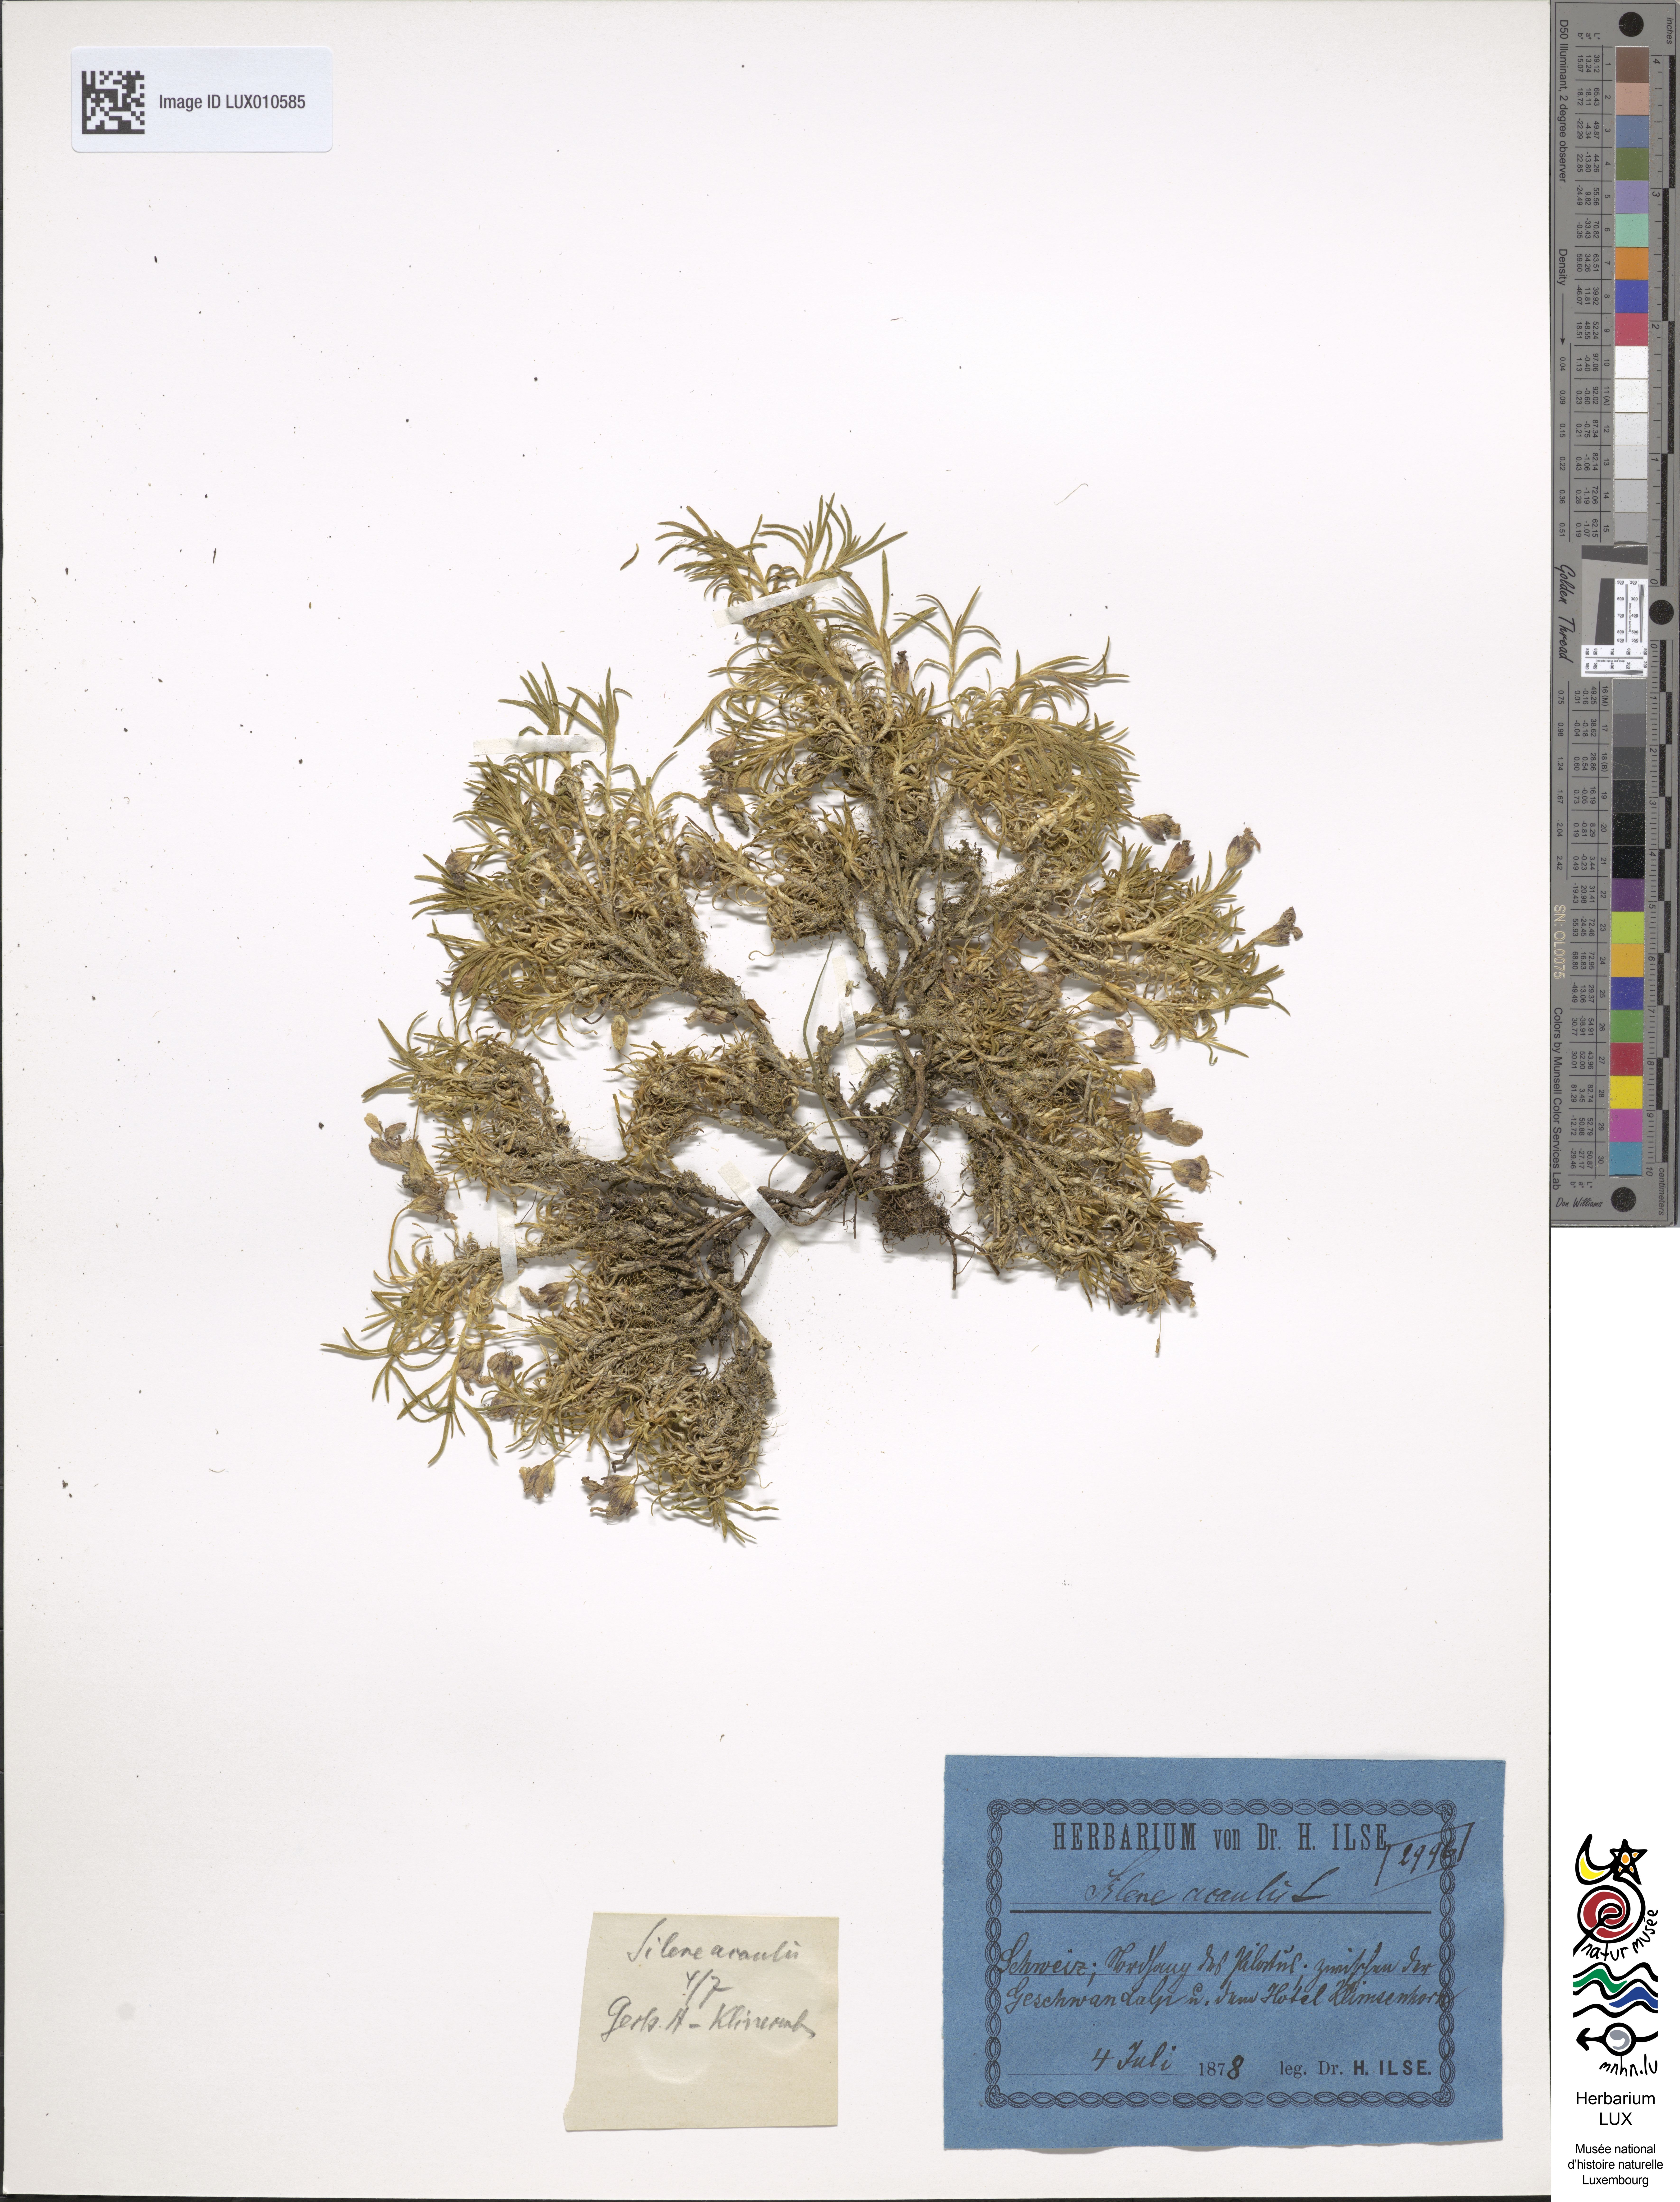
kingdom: Plantae
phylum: Tracheophyta
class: Magnoliopsida
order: Caryophyllales
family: Caryophyllaceae
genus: Silene
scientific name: Silene acaulis
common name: Moss campion
